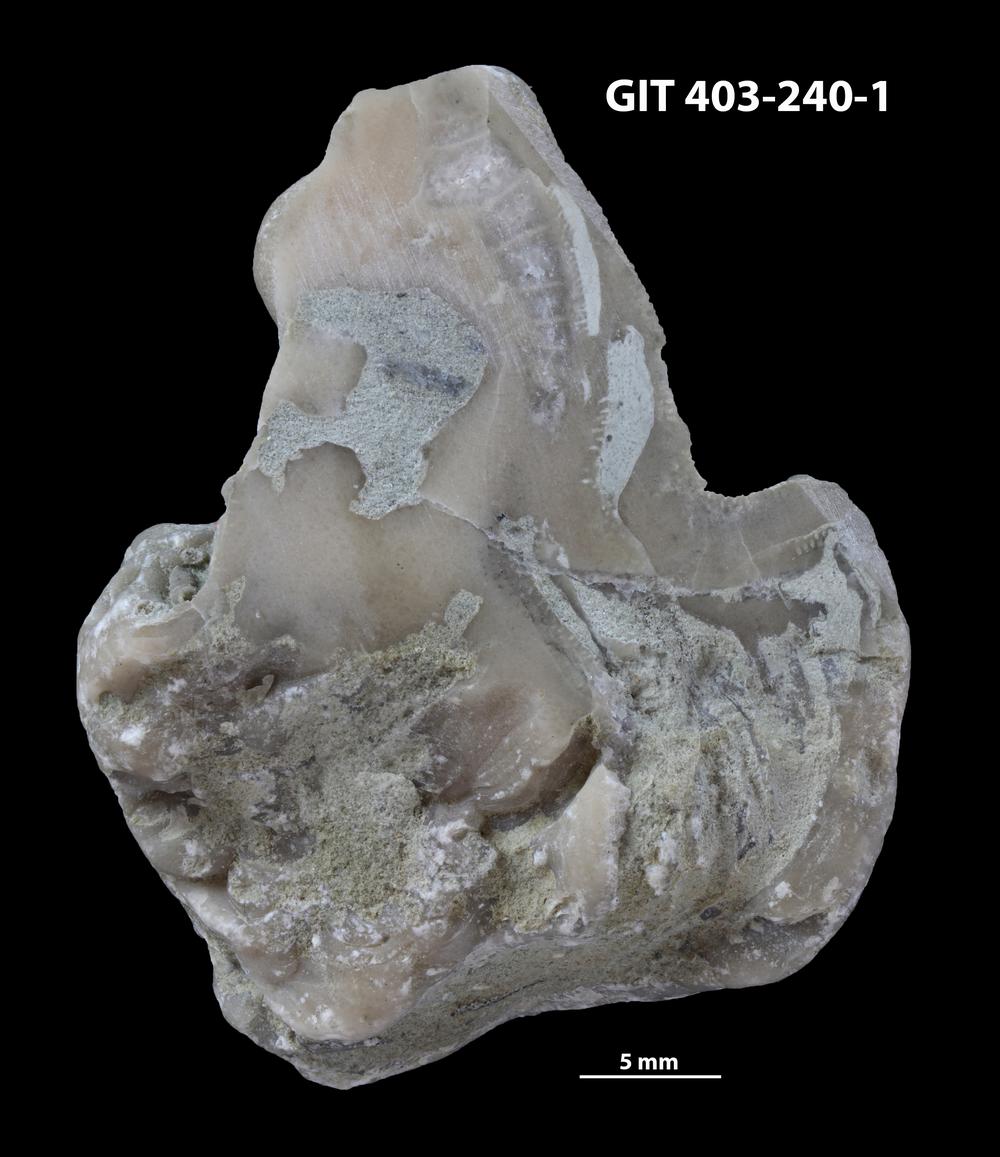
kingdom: Animalia
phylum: Cnidaria
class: Anthozoa
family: Tryplasmatidae
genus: Tryplasma
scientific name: Tryplasma
